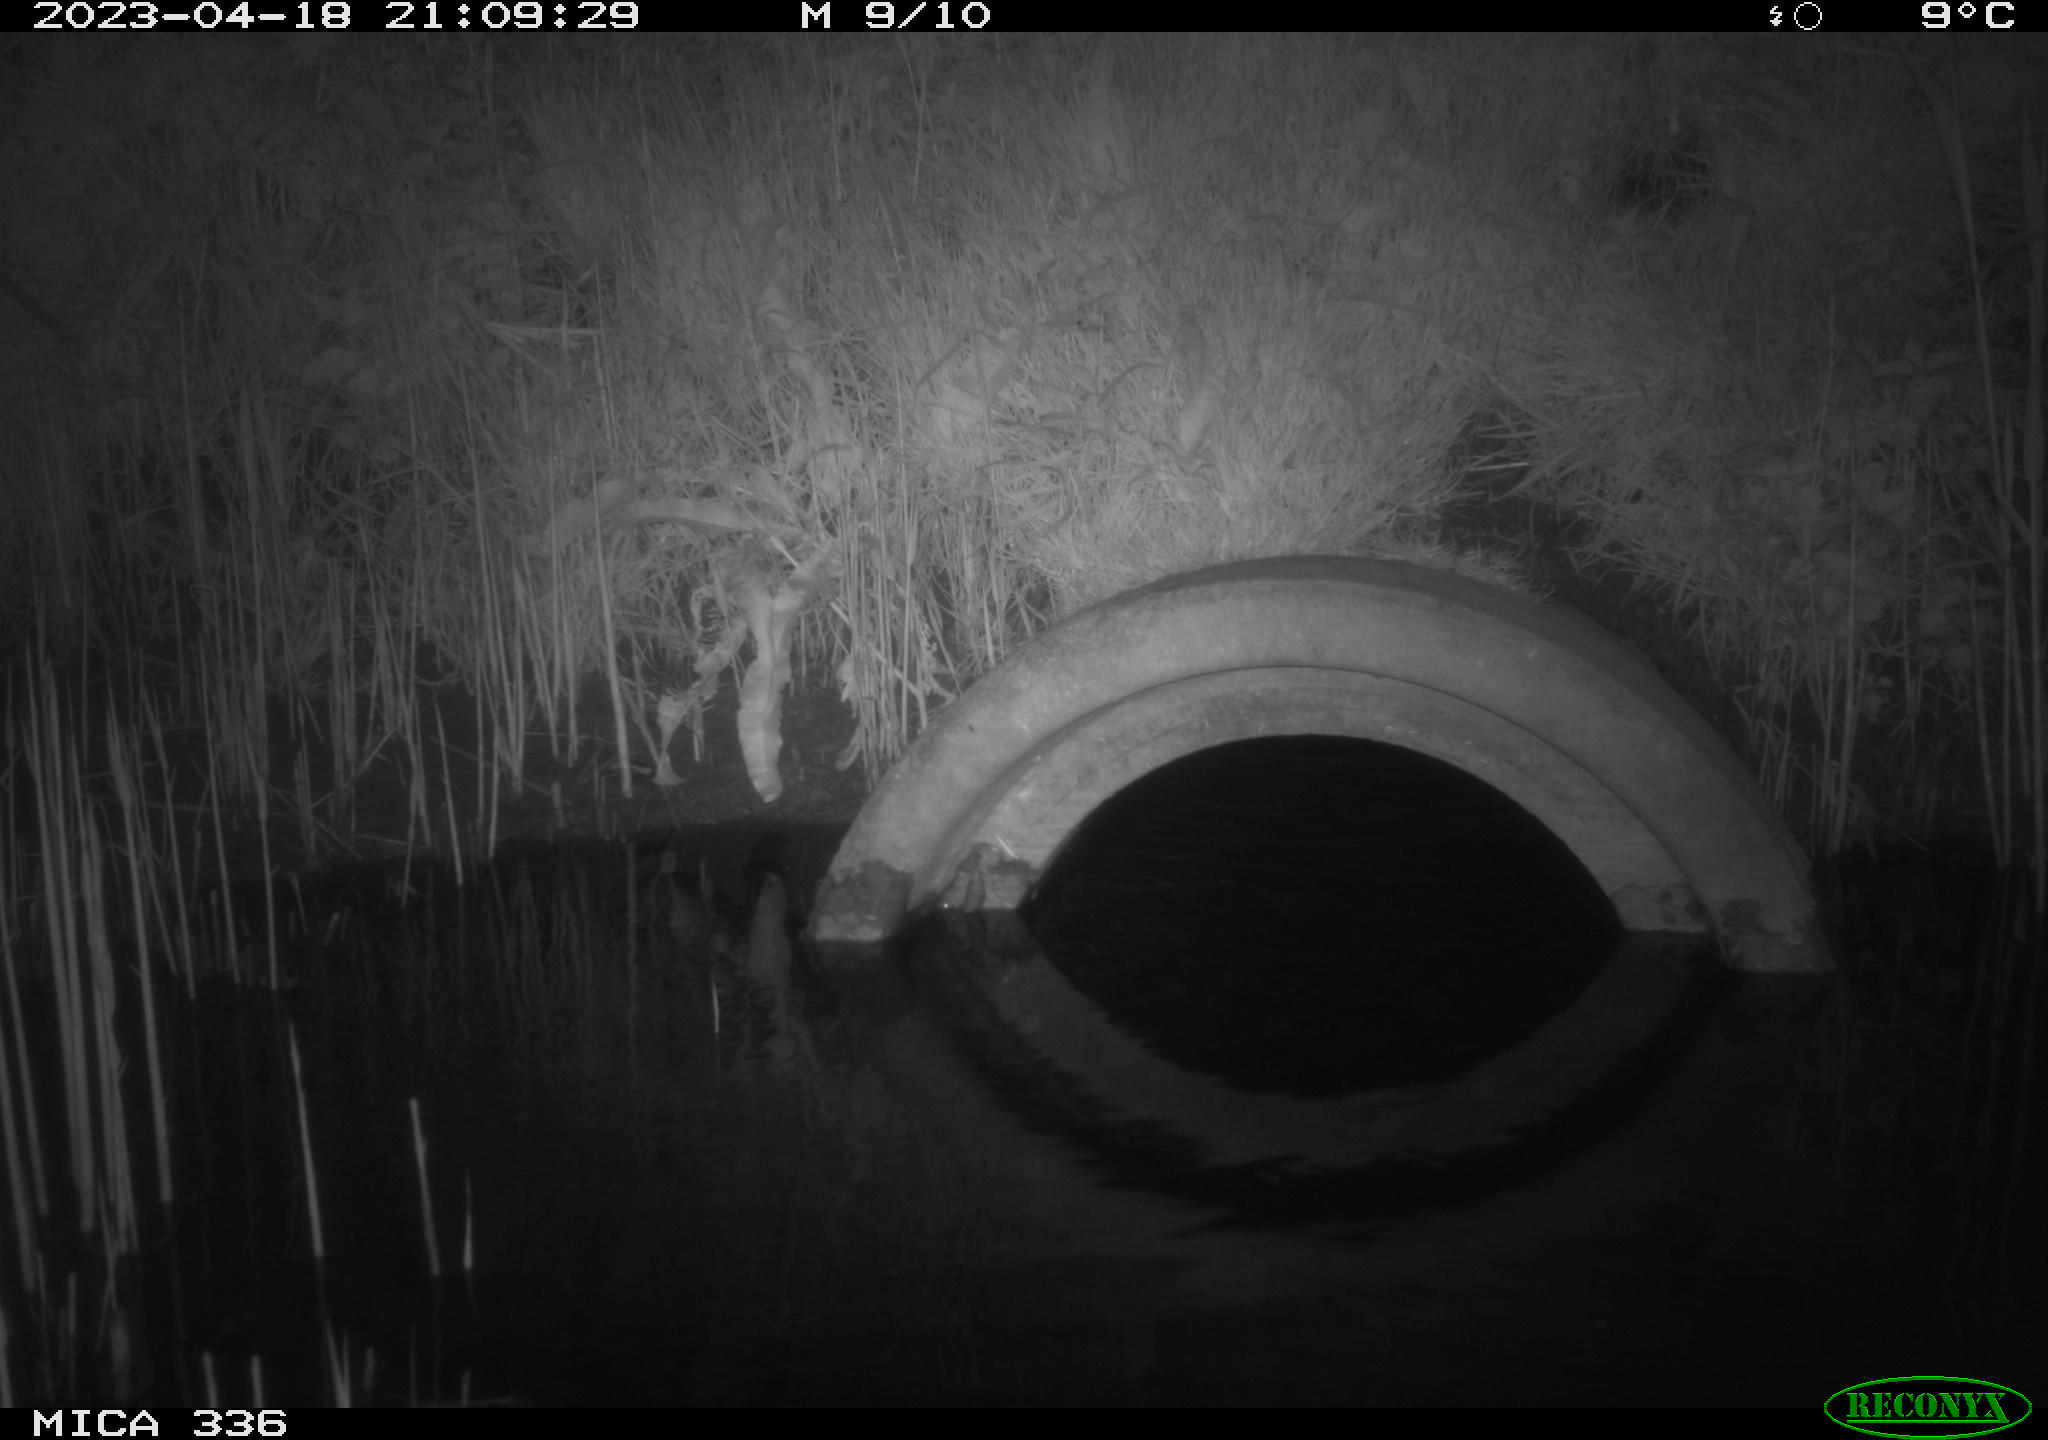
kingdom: Animalia
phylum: Chordata
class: Mammalia
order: Rodentia
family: Muridae
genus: Rattus
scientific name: Rattus norvegicus
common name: Brown rat
